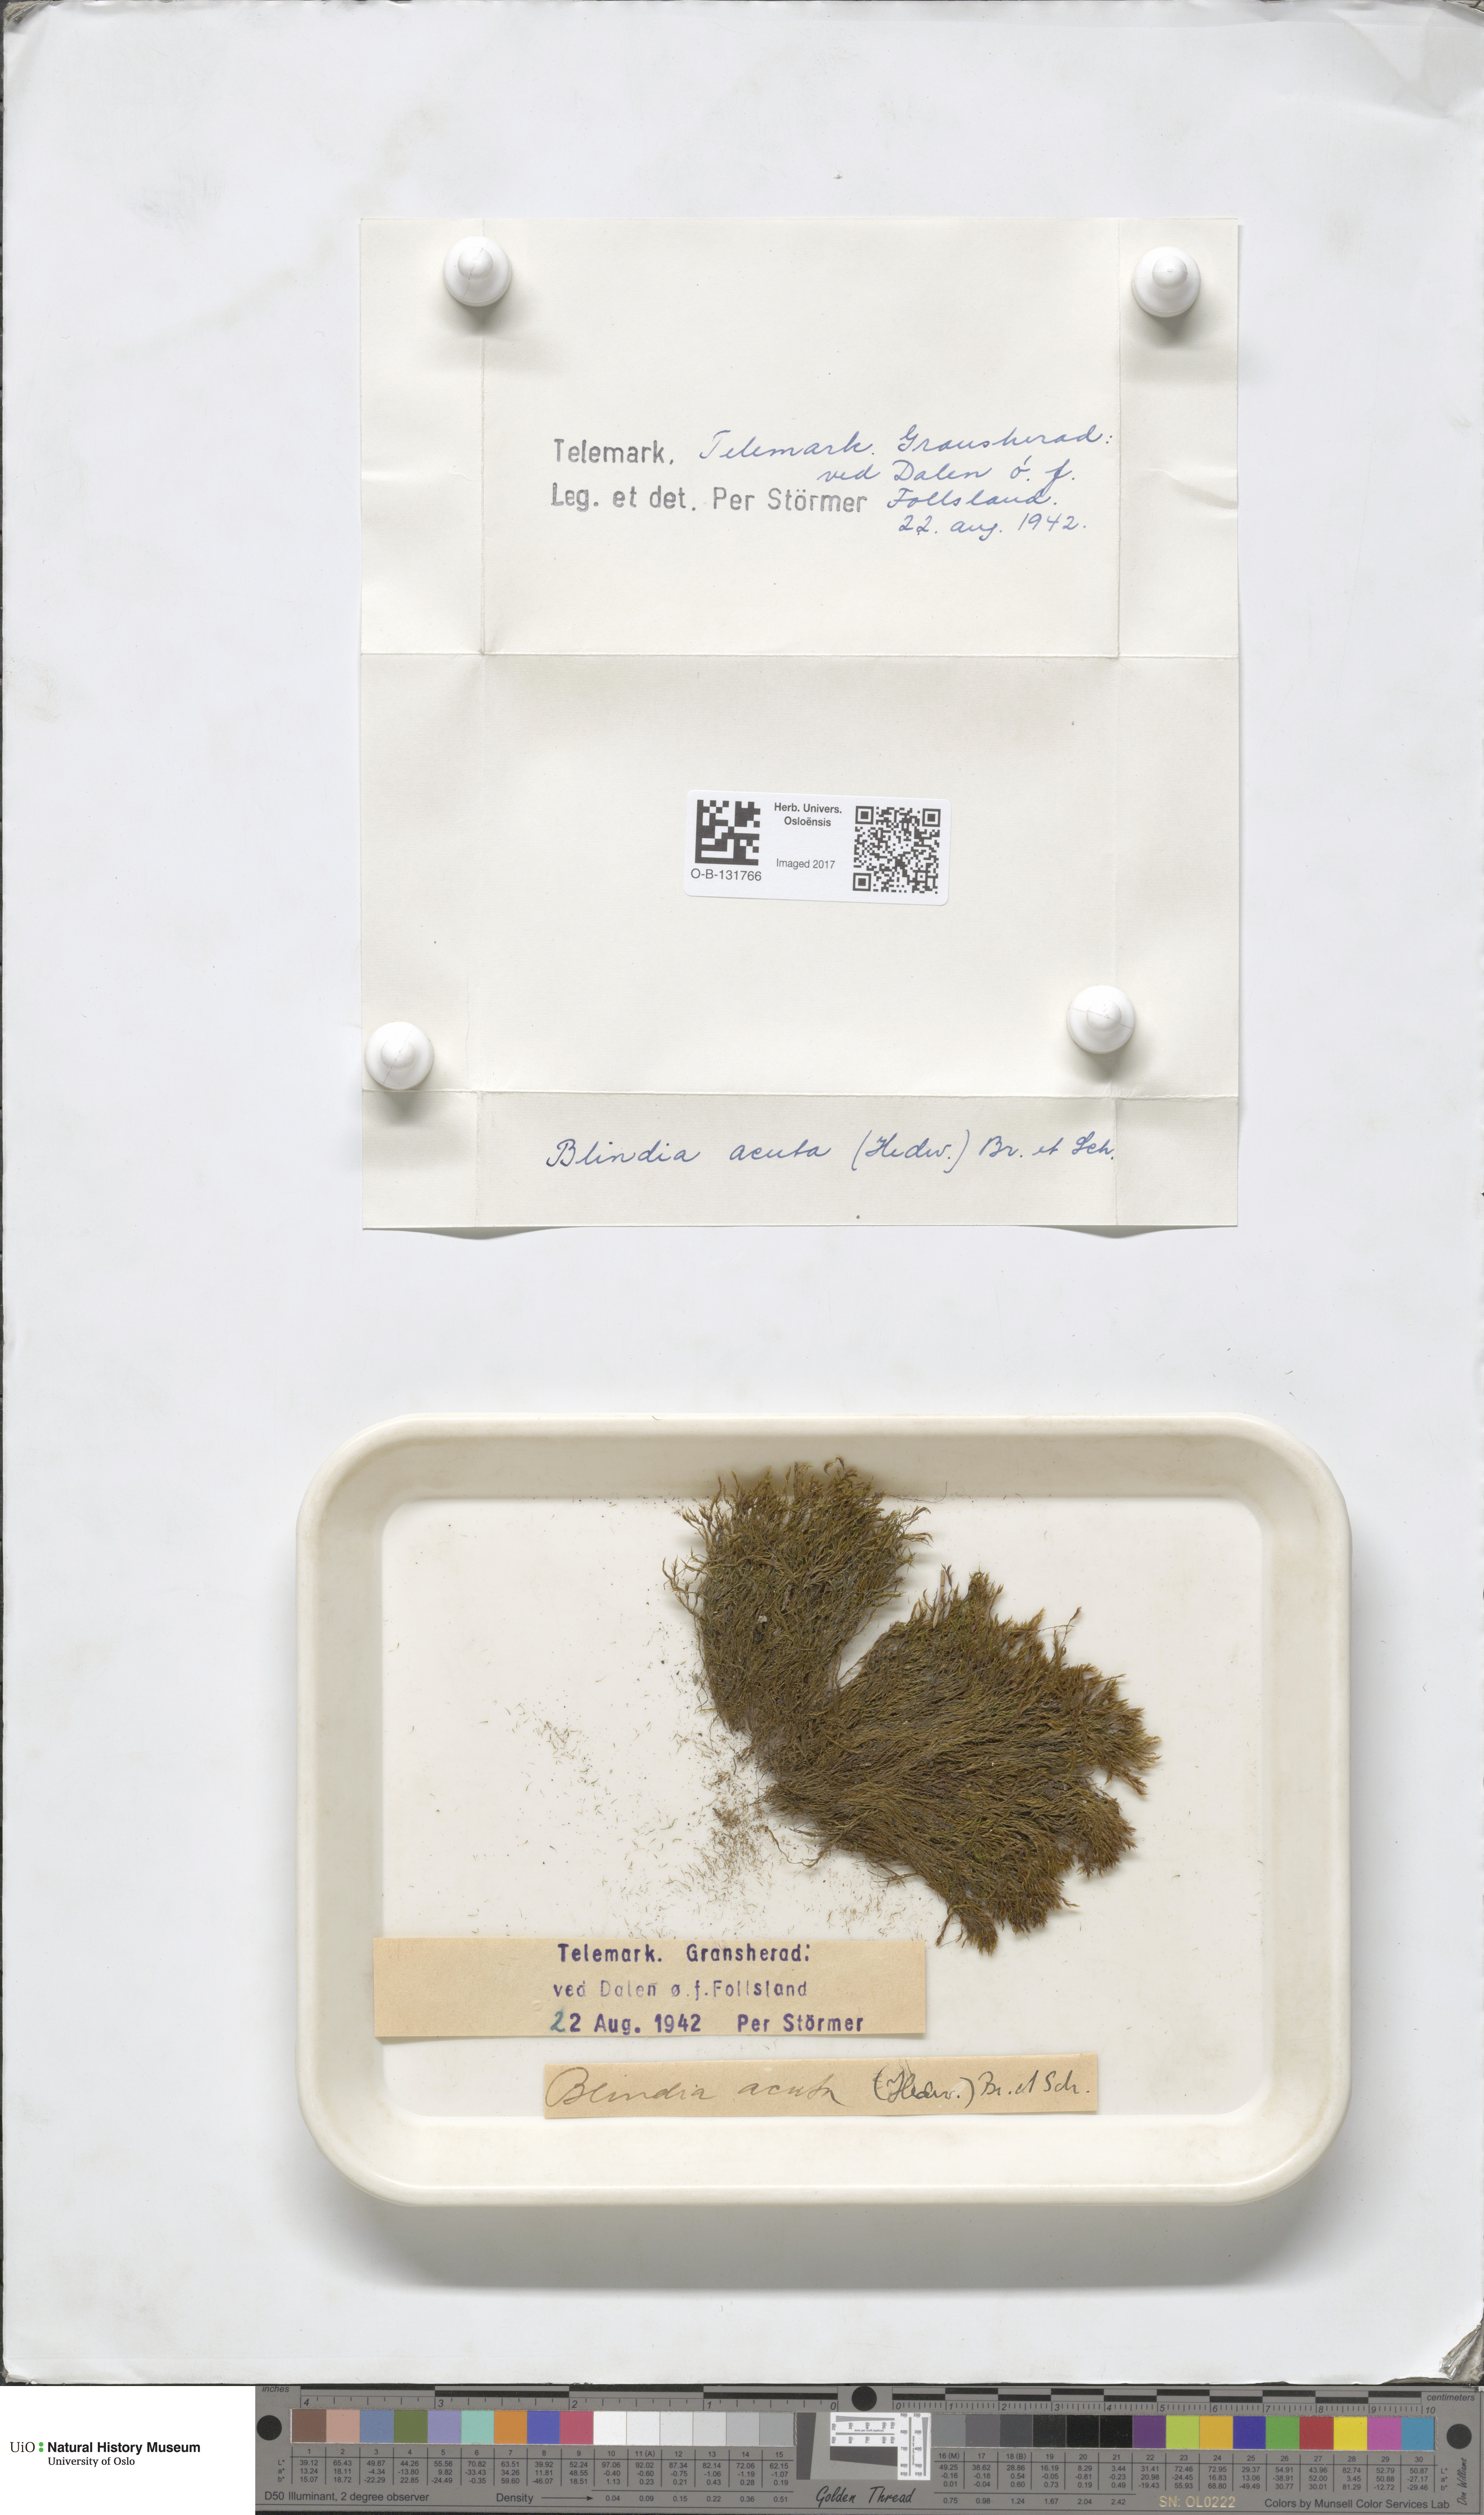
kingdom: Plantae
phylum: Bryophyta
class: Bryopsida
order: Grimmiales
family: Seligeriaceae
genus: Blindia
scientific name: Blindia acuta
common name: Sharp-leaved blind's moss
